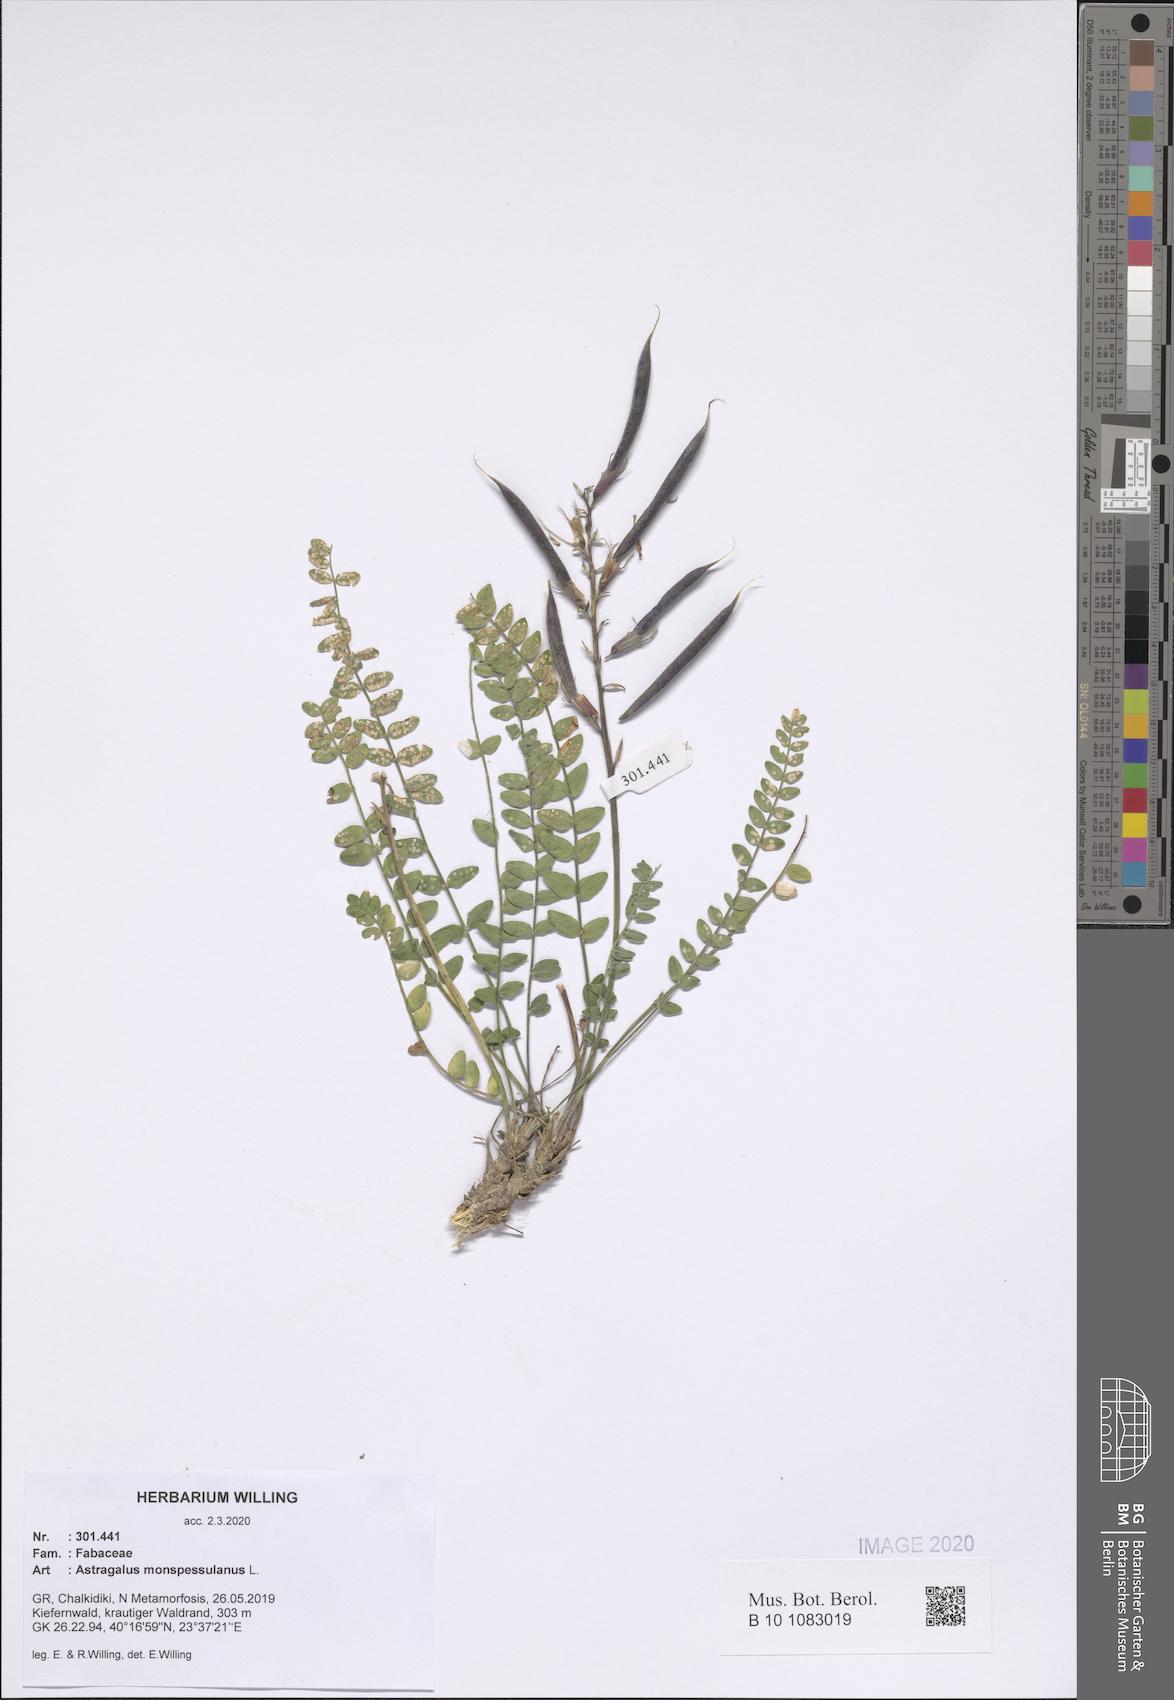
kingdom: Plantae
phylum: Tracheophyta
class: Magnoliopsida
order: Fabales
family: Fabaceae
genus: Astragalus
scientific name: Astragalus monspessulanus
